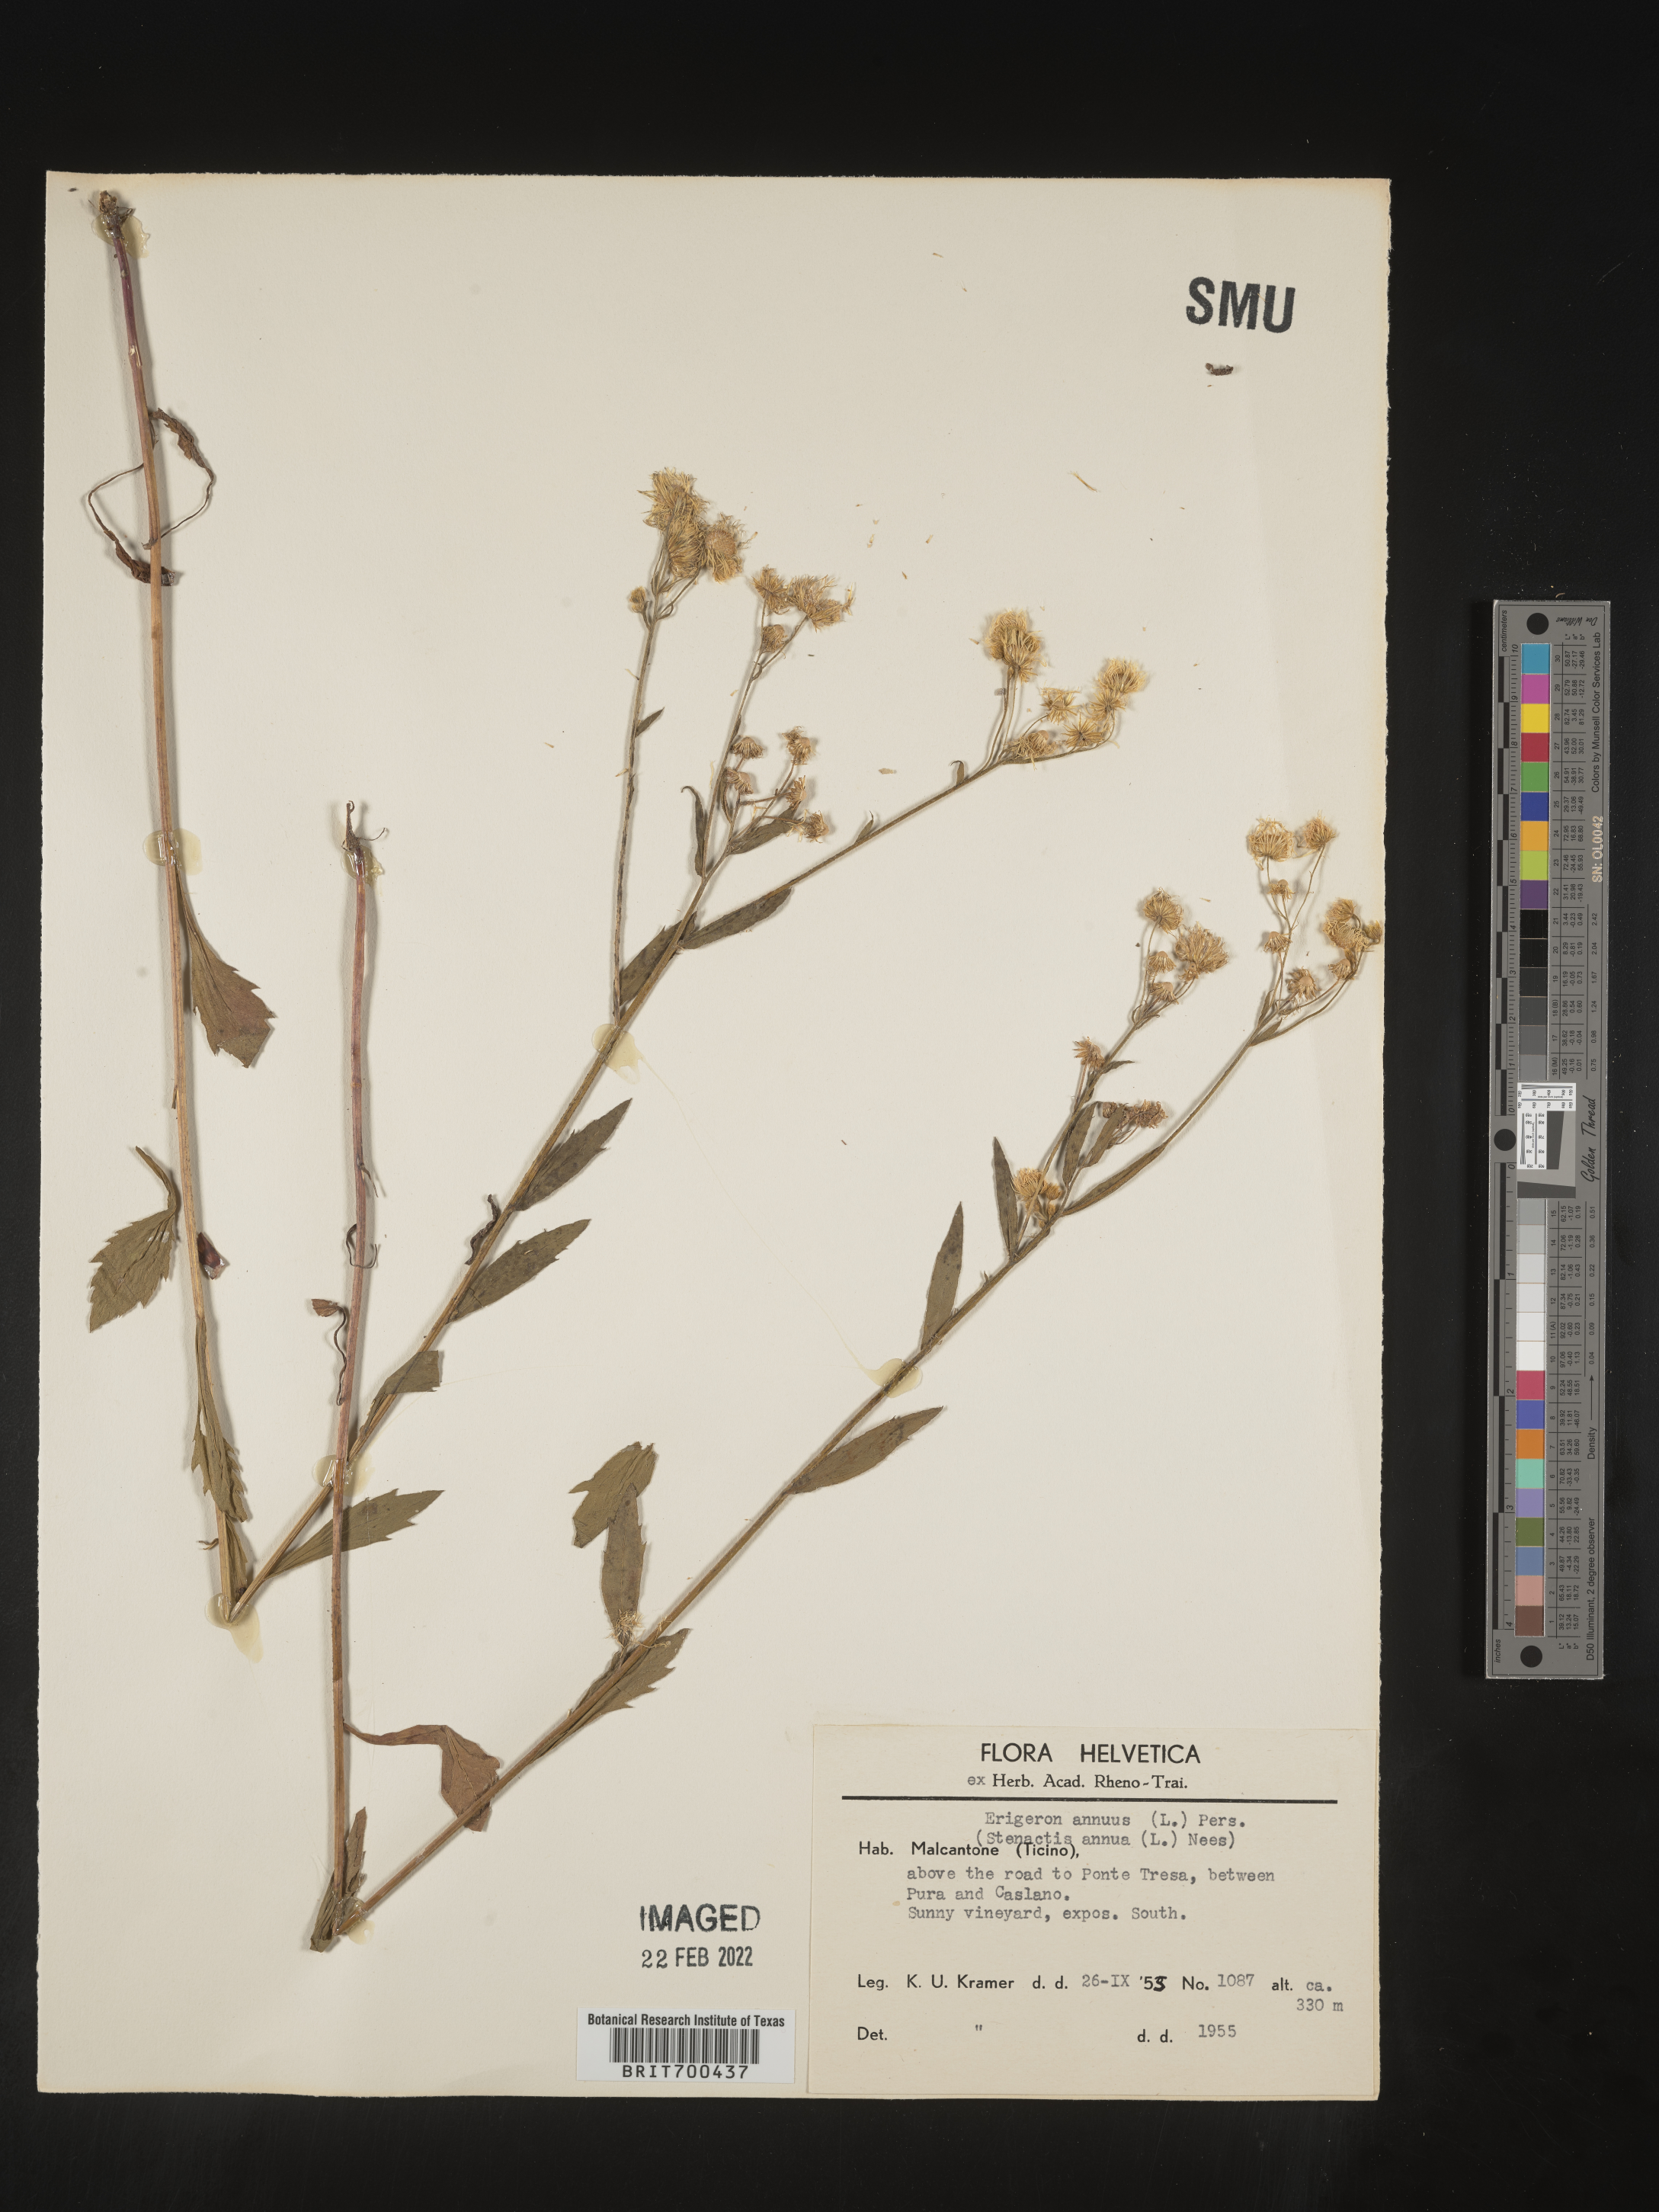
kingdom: Plantae
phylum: Tracheophyta
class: Magnoliopsida
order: Asterales
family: Asteraceae
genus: Erigeron
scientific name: Erigeron
